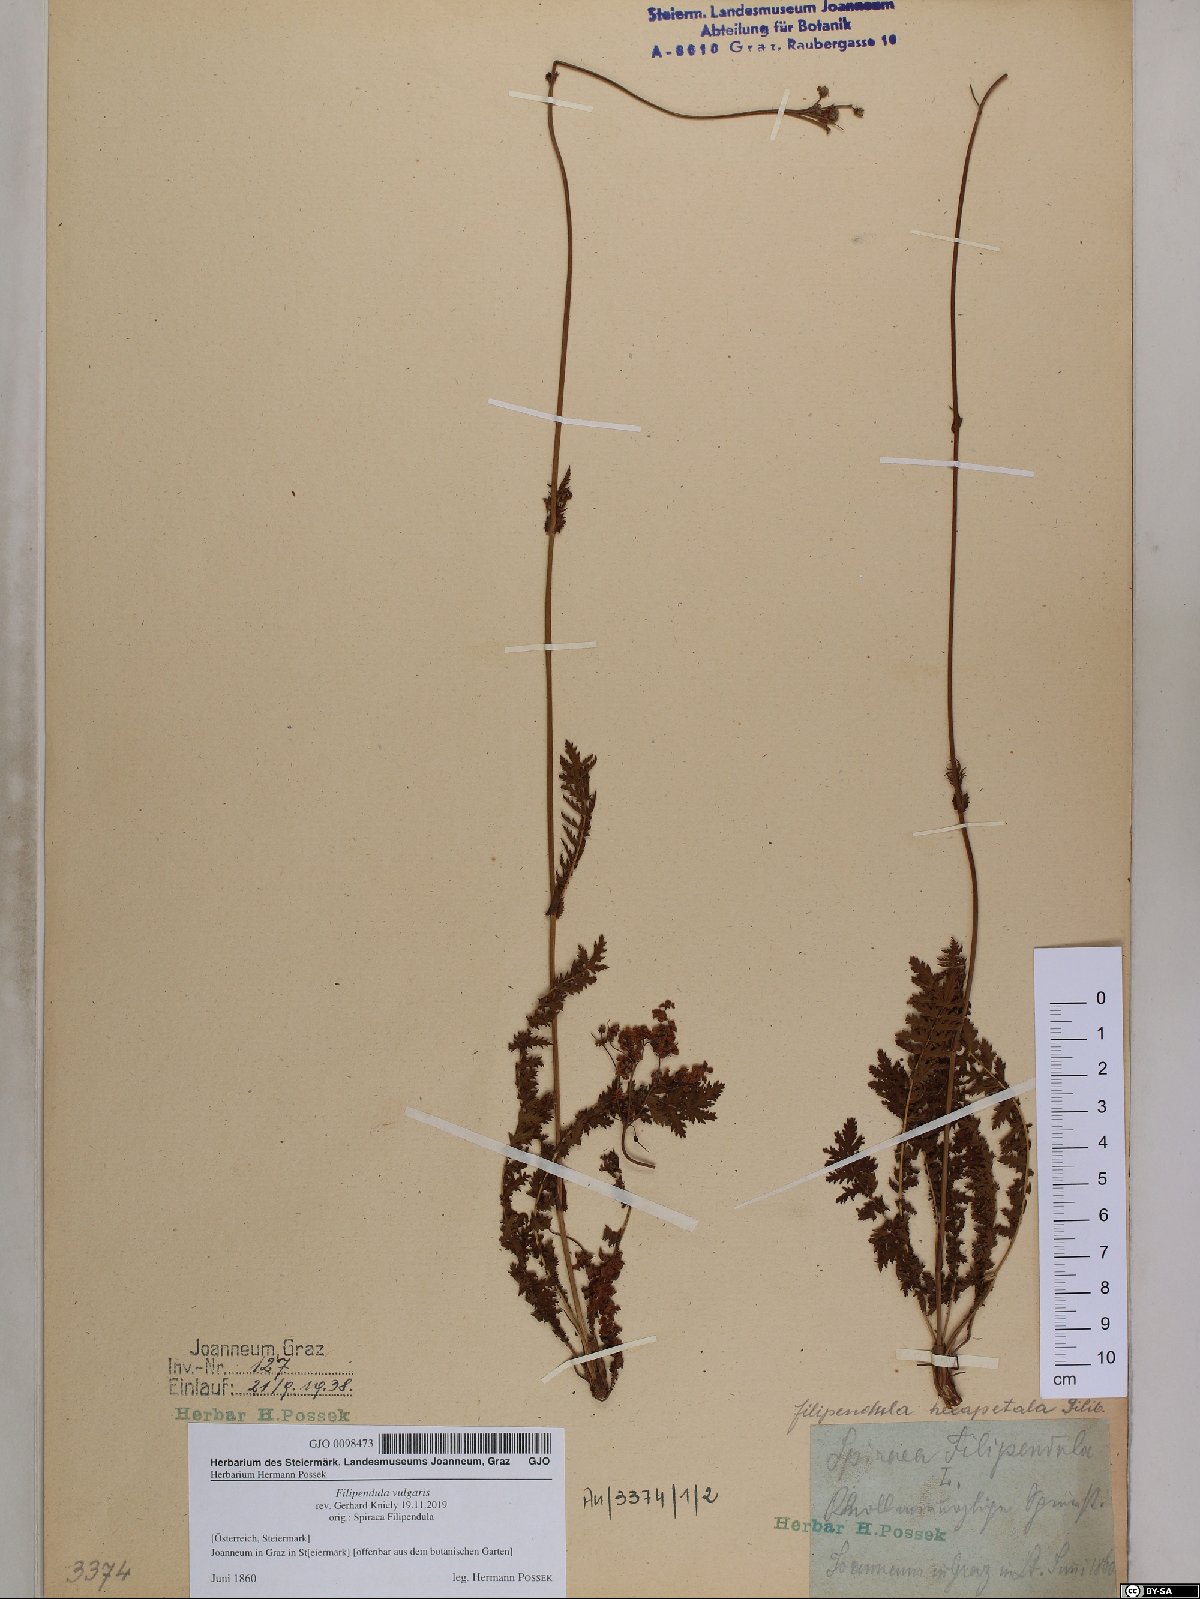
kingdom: Plantae
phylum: Tracheophyta
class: Magnoliopsida
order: Rosales
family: Rosaceae
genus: Filipendula
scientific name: Filipendula vulgaris
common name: Dropwort
